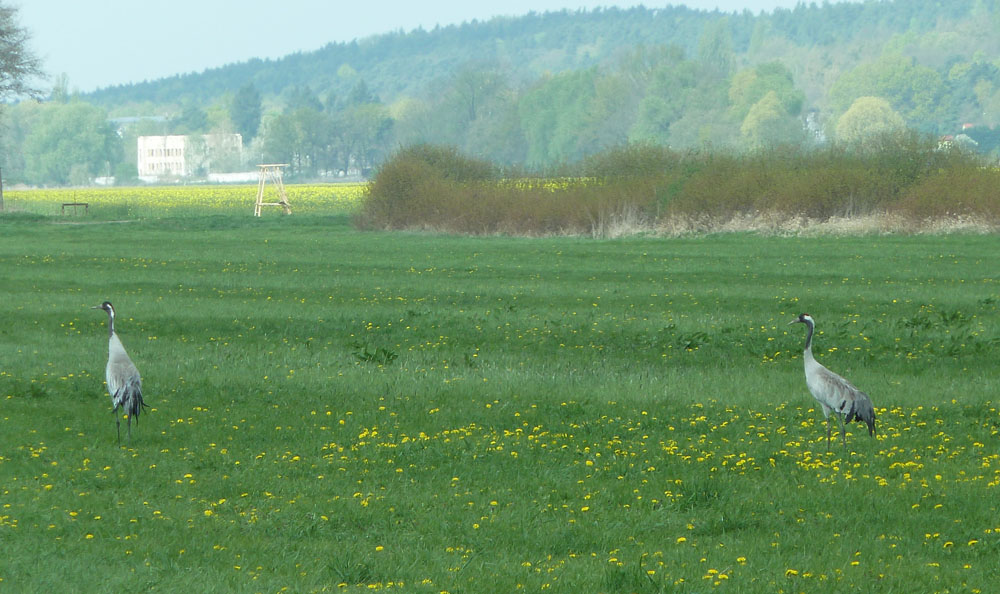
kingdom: Animalia
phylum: Chordata
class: Aves
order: Gruiformes
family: Gruidae
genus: Grus
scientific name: Grus grus
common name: Common crane
